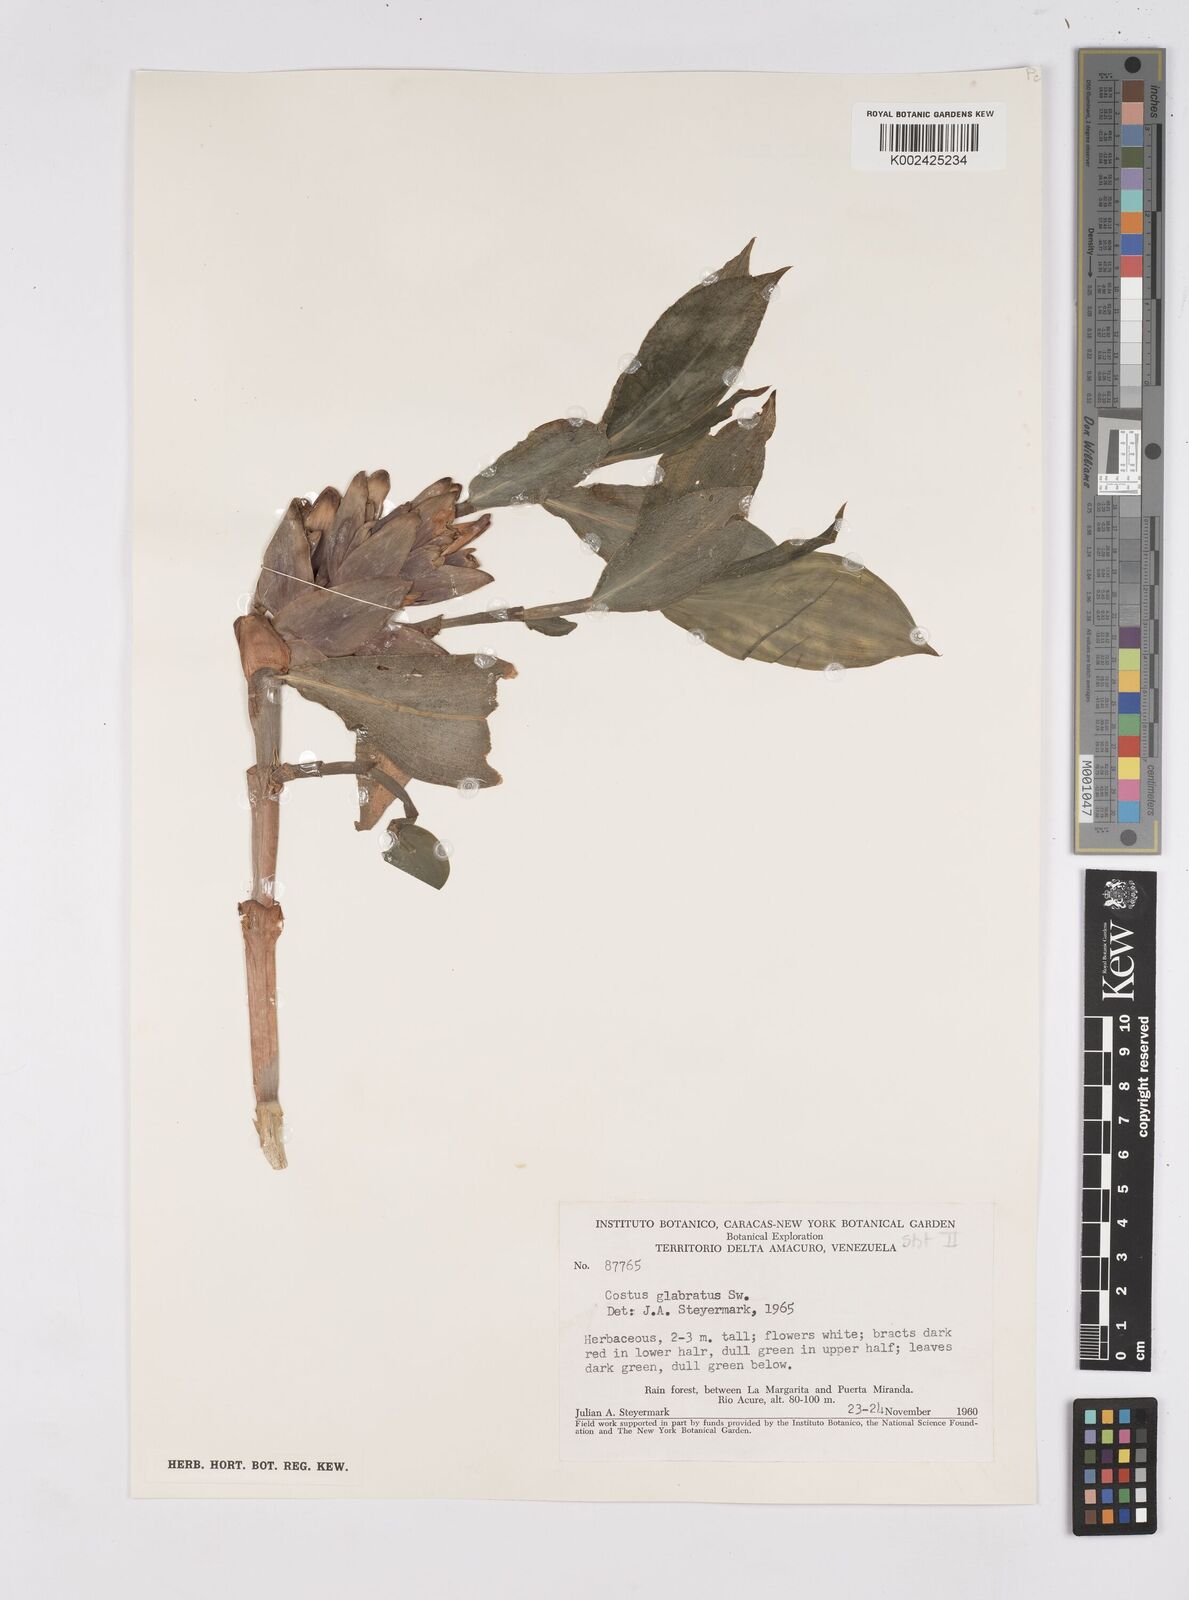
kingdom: Plantae
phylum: Tracheophyta
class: Liliopsida
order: Zingiberales
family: Costaceae
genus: Costus
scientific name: Costus arabicus
